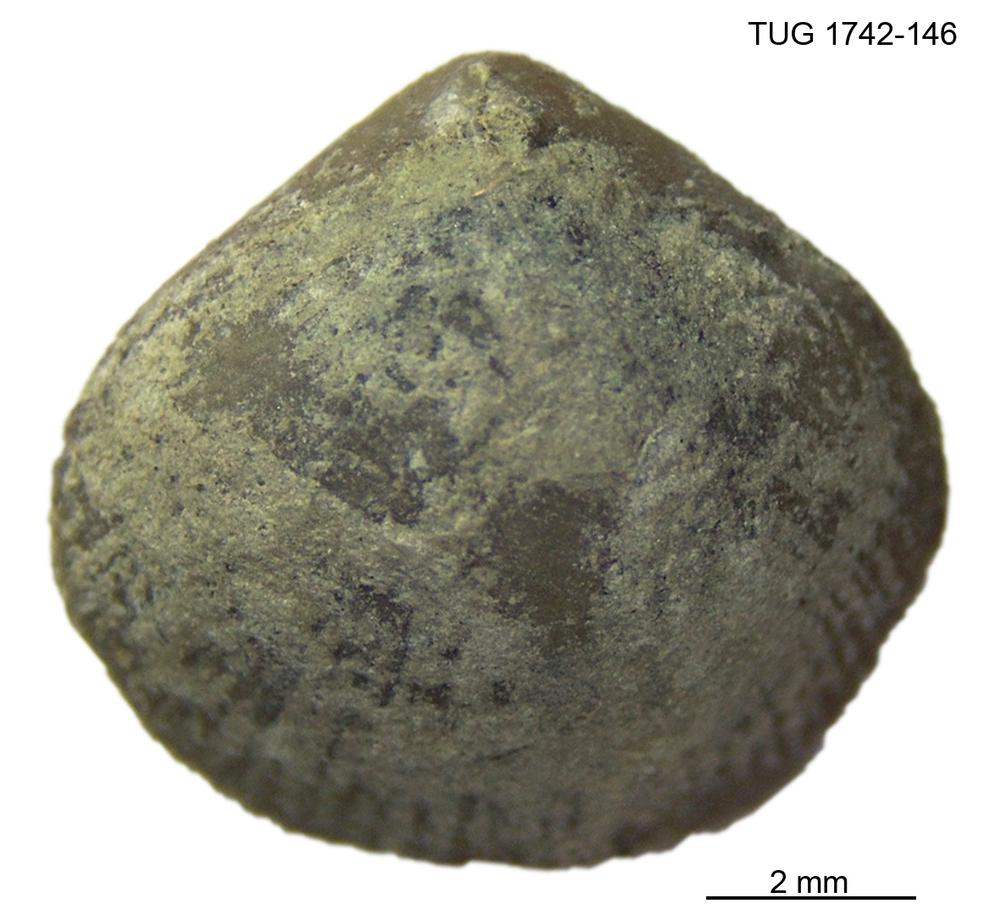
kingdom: Animalia
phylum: Brachiopoda
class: Rhynchonellata
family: Anazygidae
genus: Pentlandella
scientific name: Pentlandella
